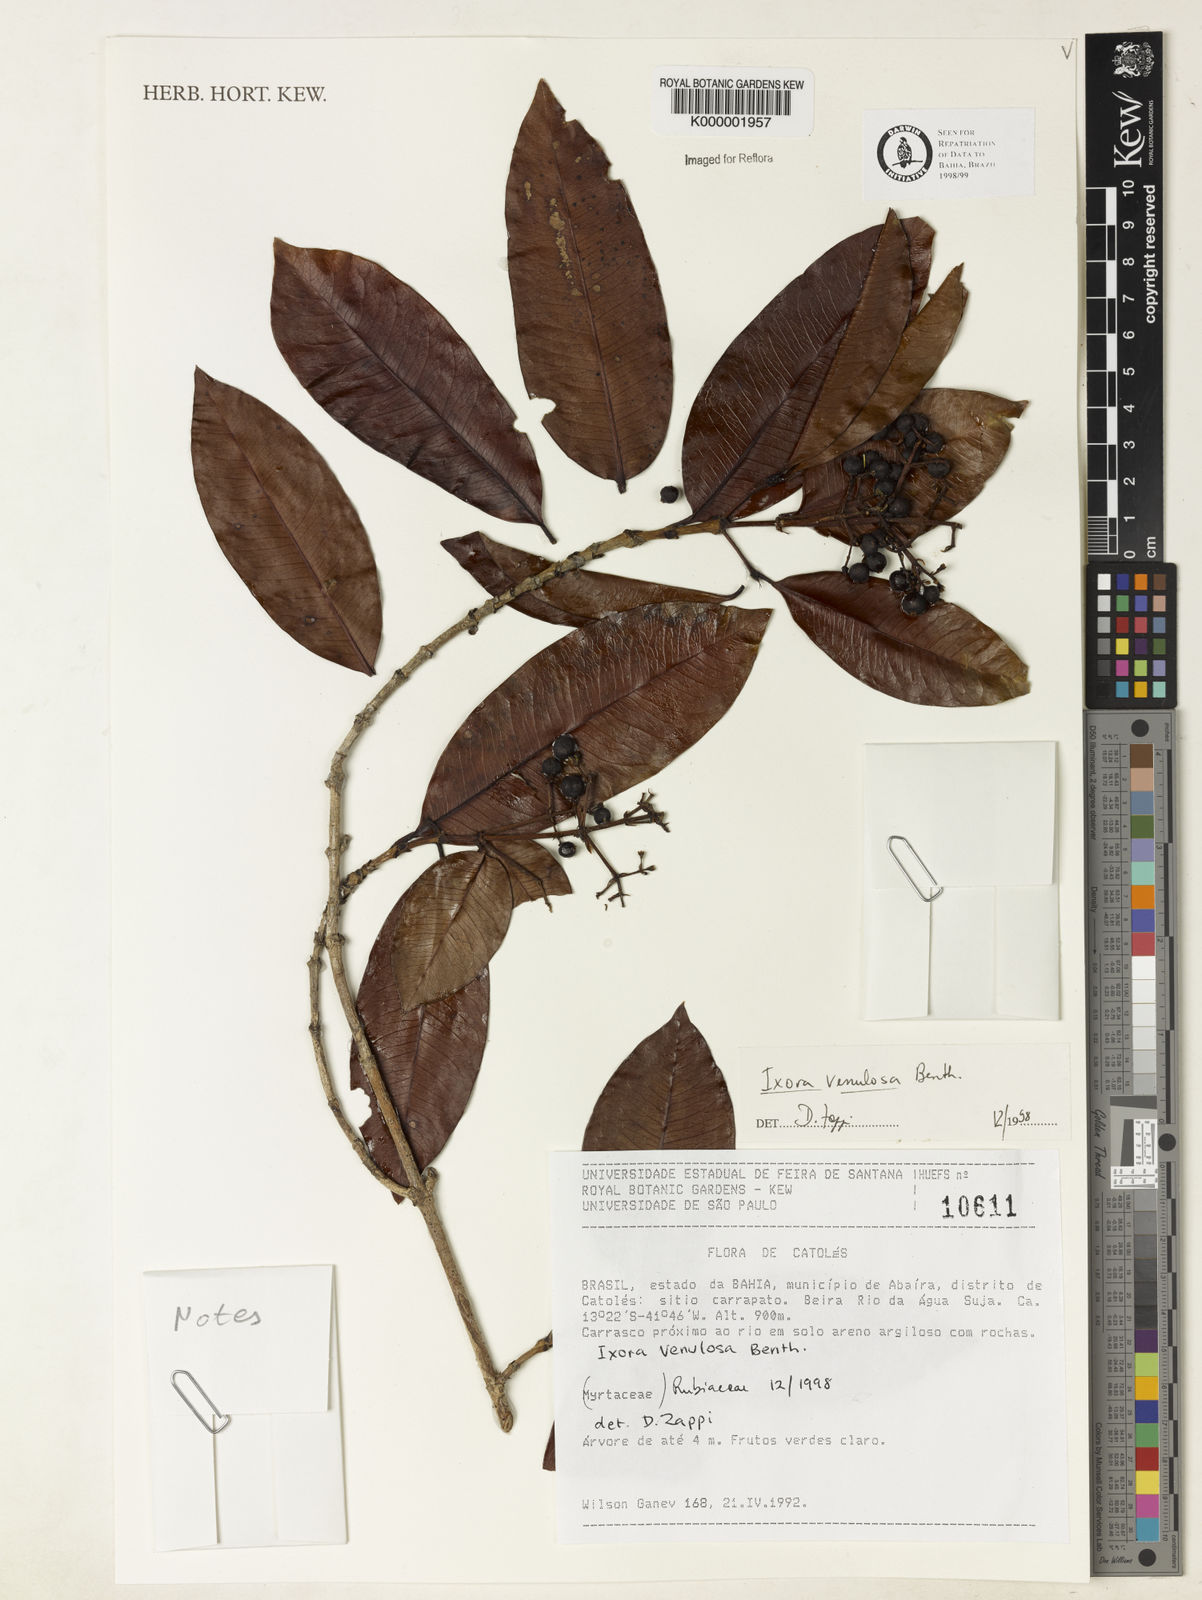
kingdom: Plantae
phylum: Tracheophyta
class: Magnoliopsida
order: Gentianales
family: Rubiaceae
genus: Ixora
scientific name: Ixora venulosa
